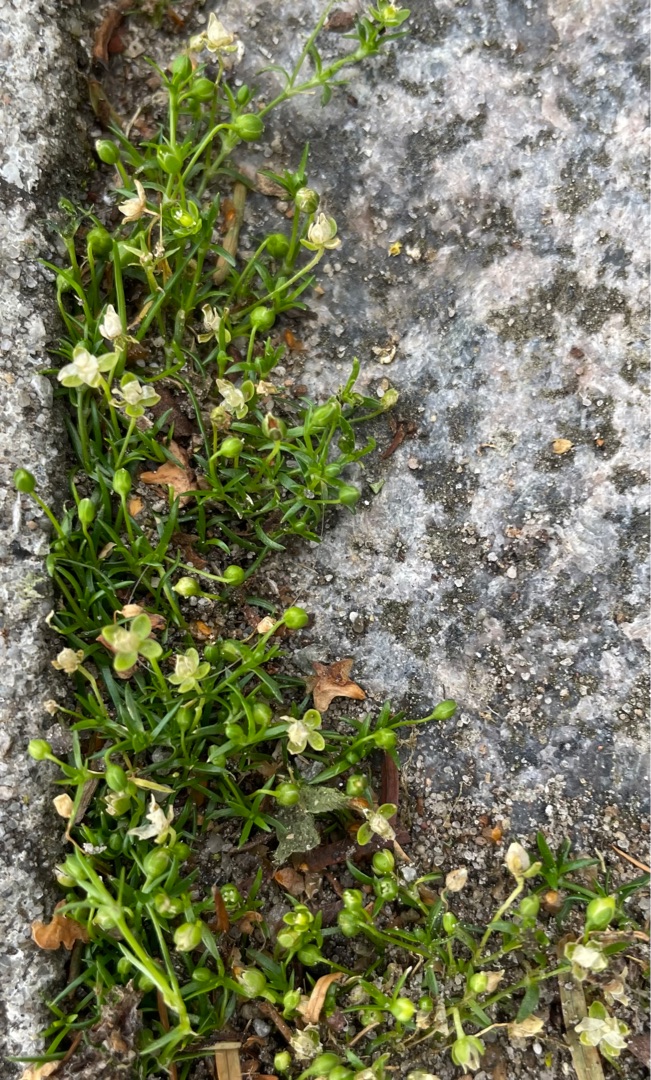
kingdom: Plantae
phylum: Tracheophyta
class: Magnoliopsida
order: Caryophyllales
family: Caryophyllaceae
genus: Sagina
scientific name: Sagina procumbens
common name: Almindelig firling
